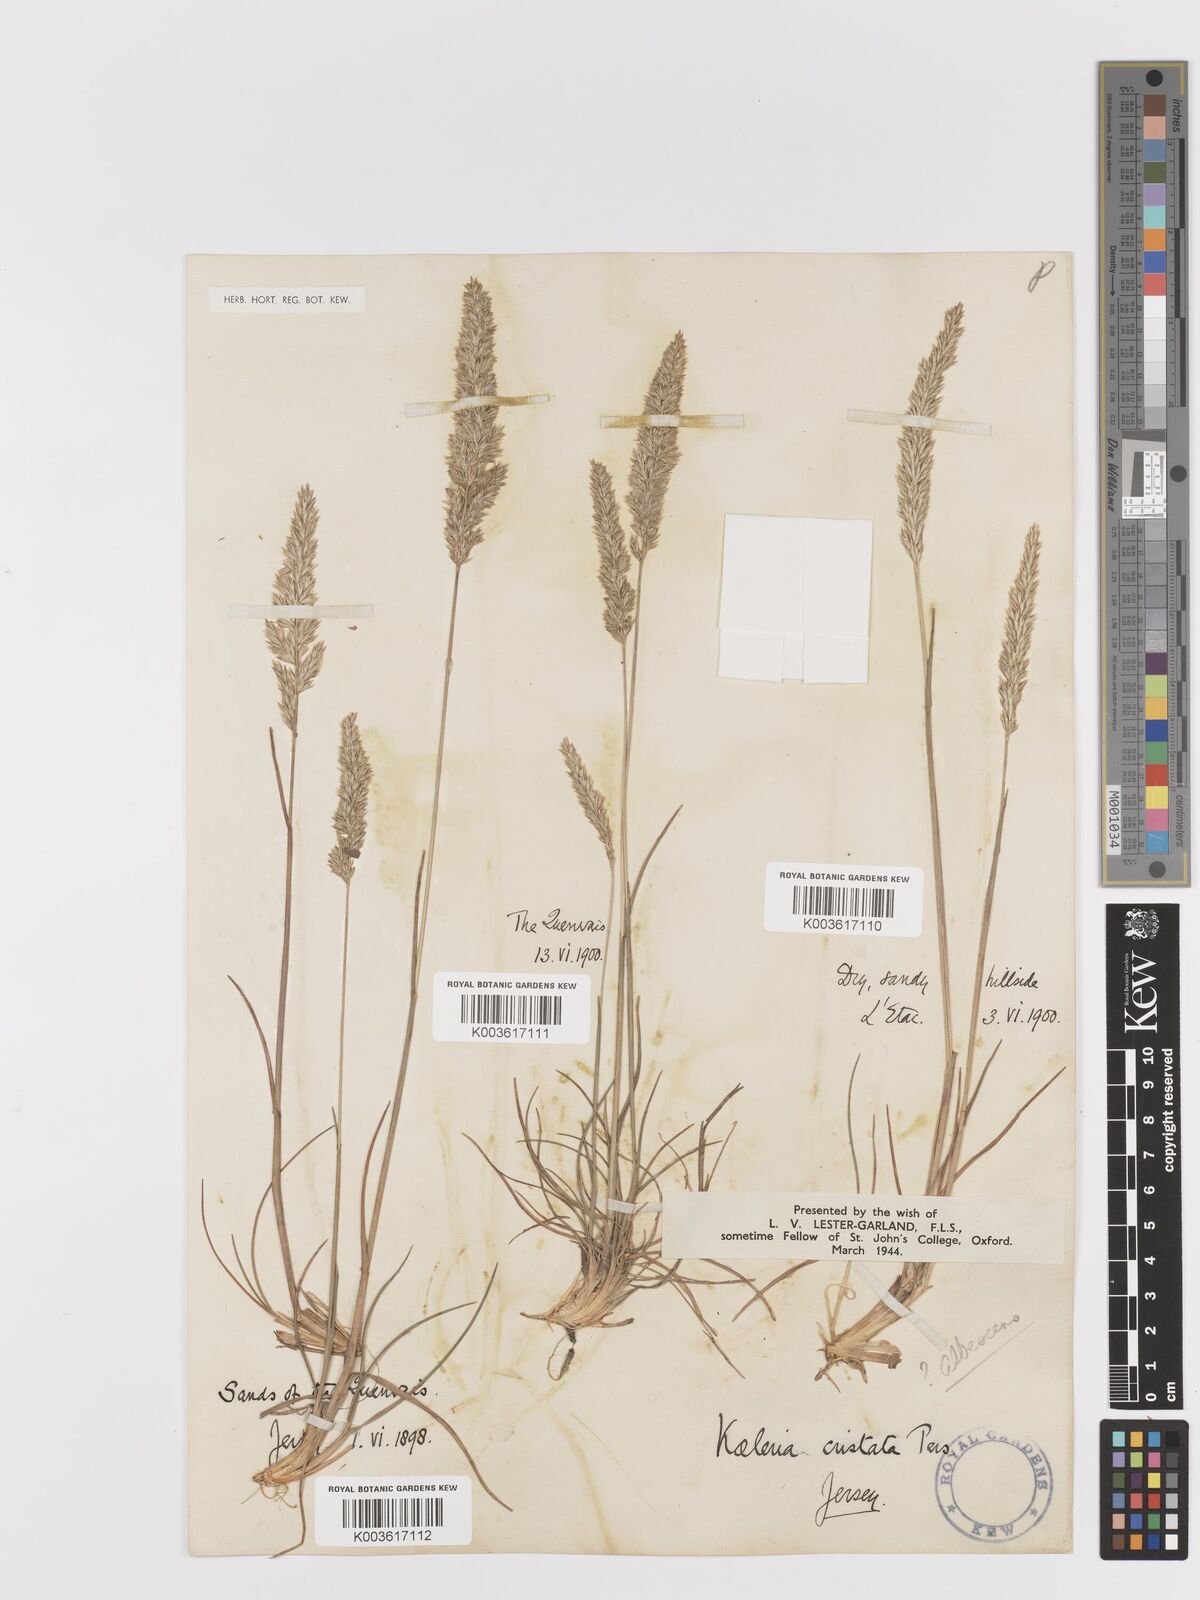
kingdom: Plantae
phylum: Tracheophyta
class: Liliopsida
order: Poales
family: Poaceae
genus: Koeleria
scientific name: Koeleria macrantha
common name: Crested hair-grass
